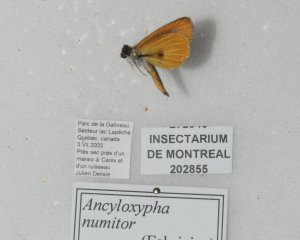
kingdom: Animalia
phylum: Arthropoda
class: Insecta
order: Lepidoptera
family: Hesperiidae
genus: Ancyloxypha
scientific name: Ancyloxypha numitor
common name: Least Skipper
